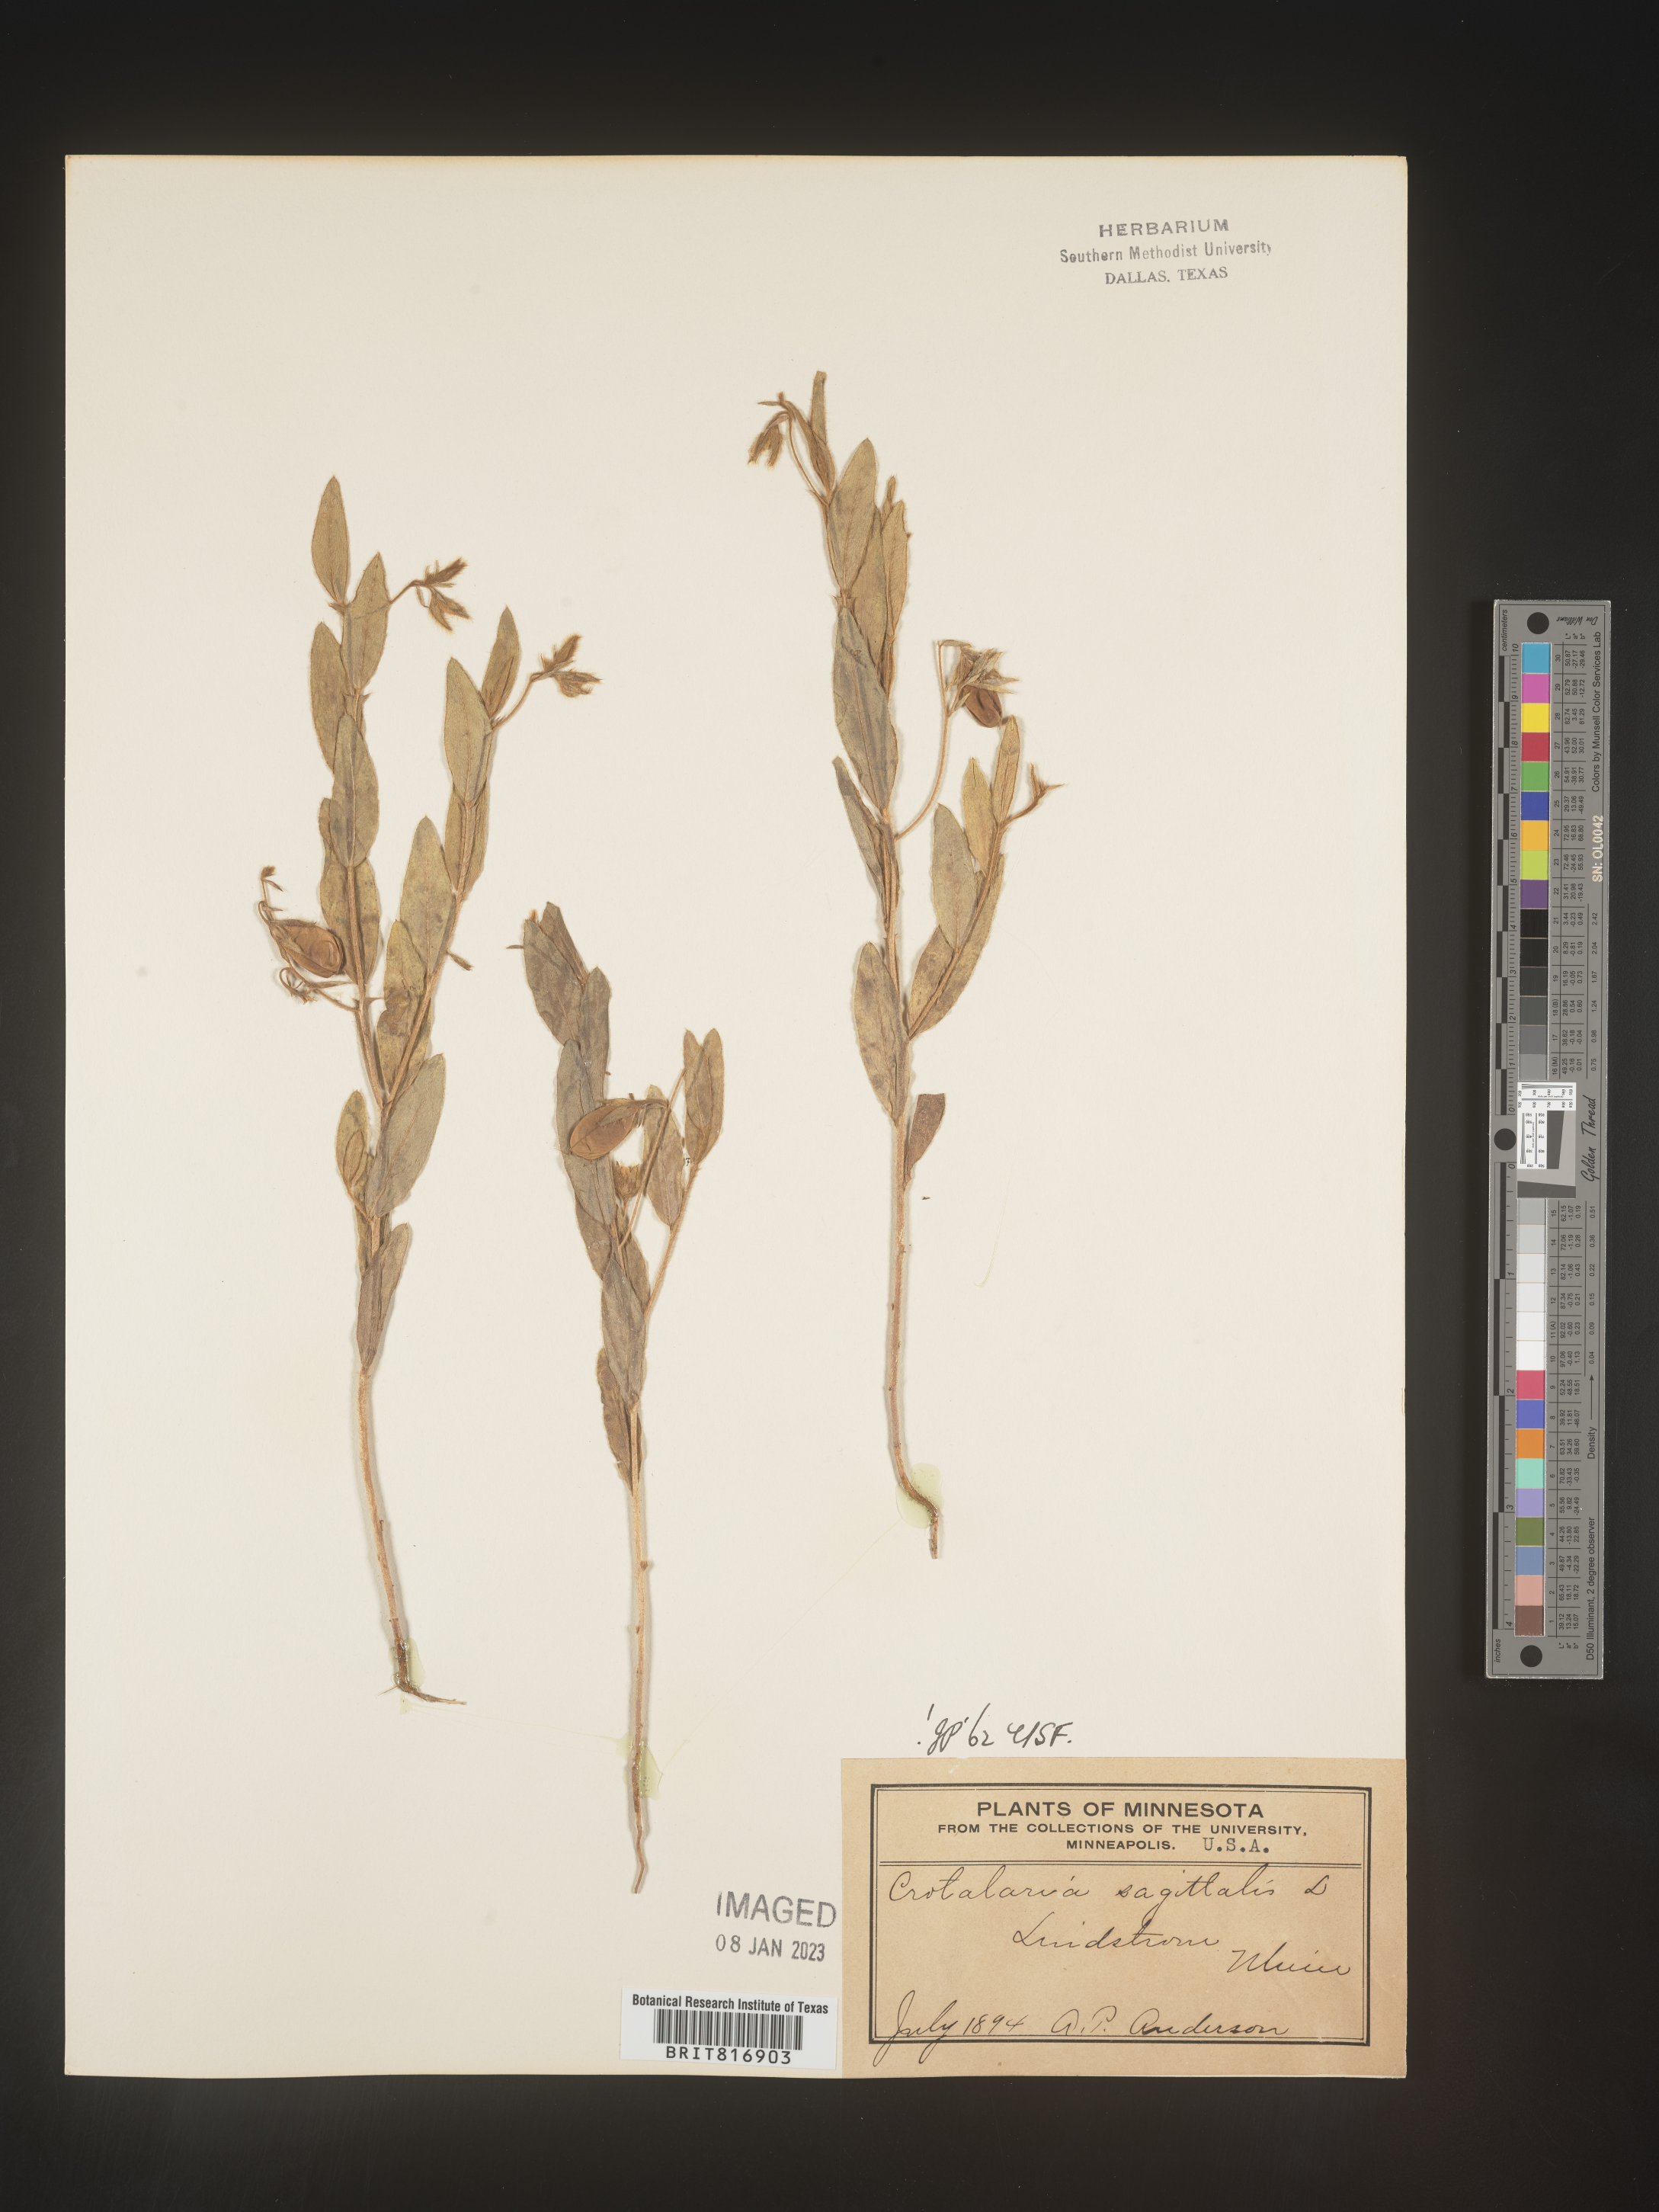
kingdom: Plantae
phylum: Tracheophyta
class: Magnoliopsida
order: Fabales
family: Fabaceae
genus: Crotalaria
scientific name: Crotalaria sagittalis
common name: Arrowhead rattlebox
